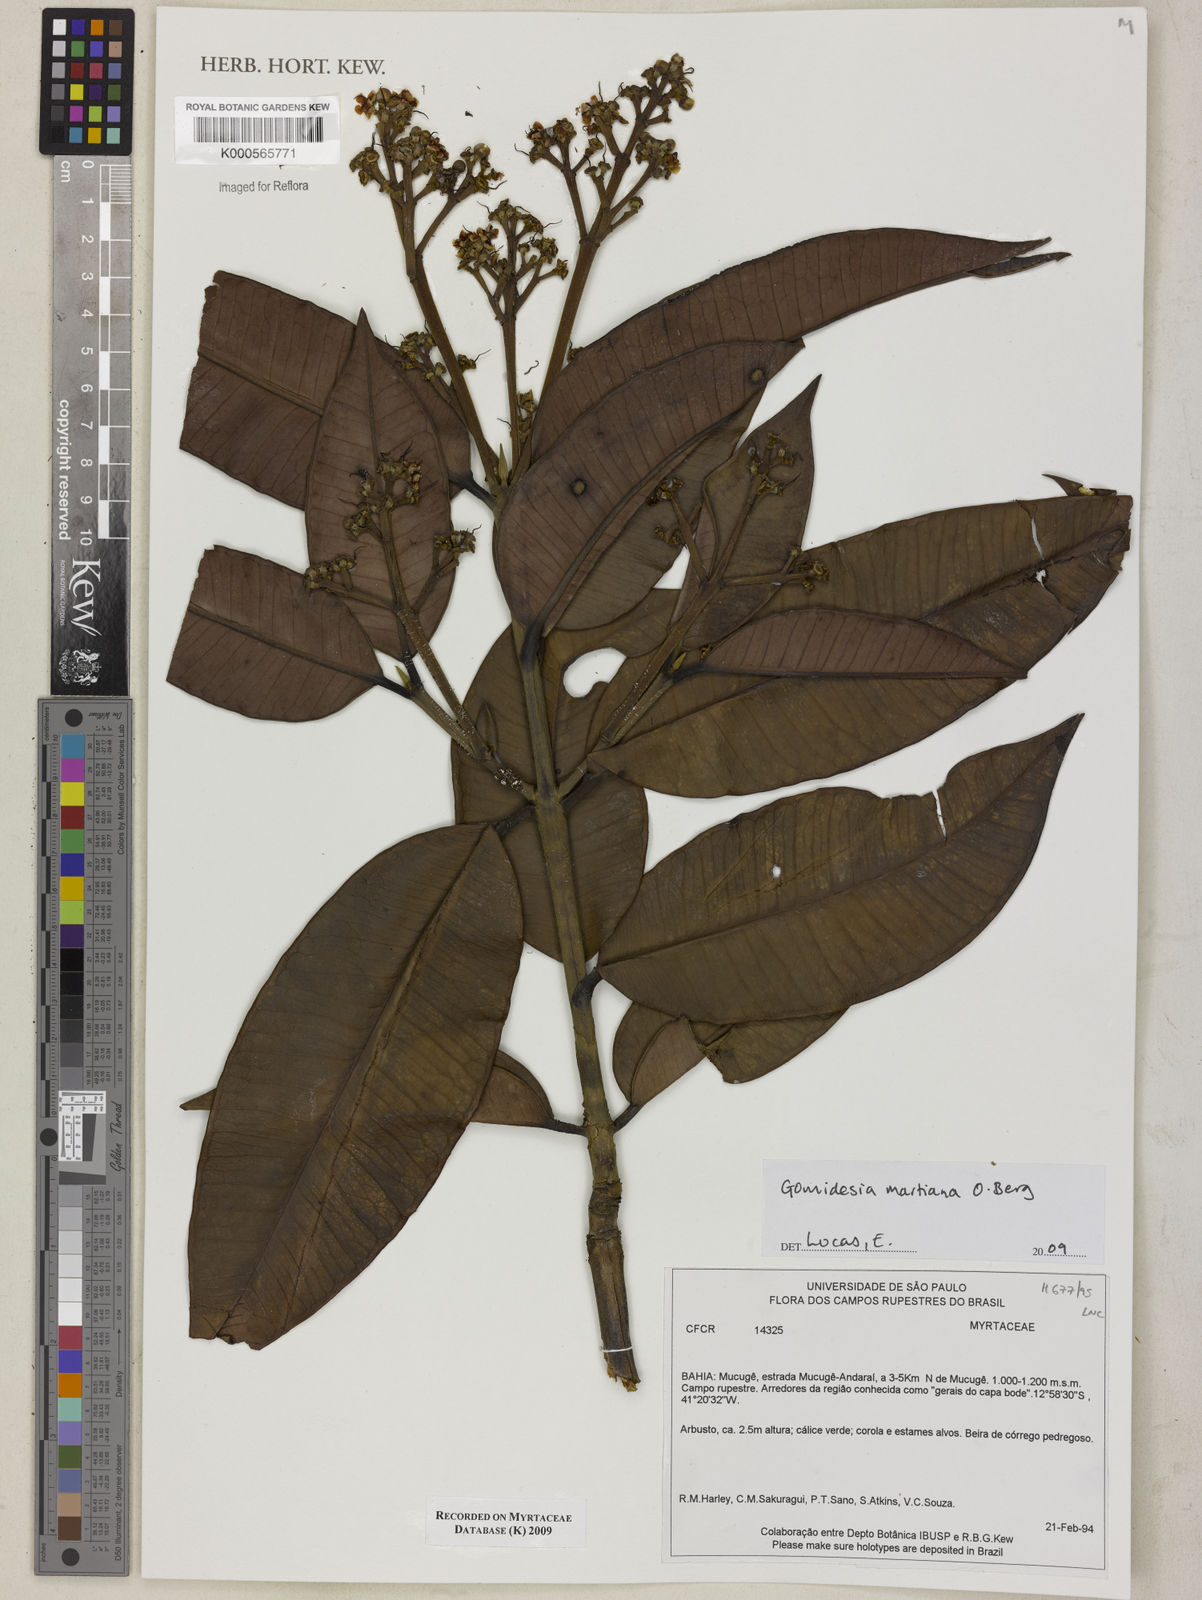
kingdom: Plantae
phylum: Tracheophyta
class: Magnoliopsida
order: Myrtales
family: Myrtaceae
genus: Myrcia
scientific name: Myrcia vittoriana
